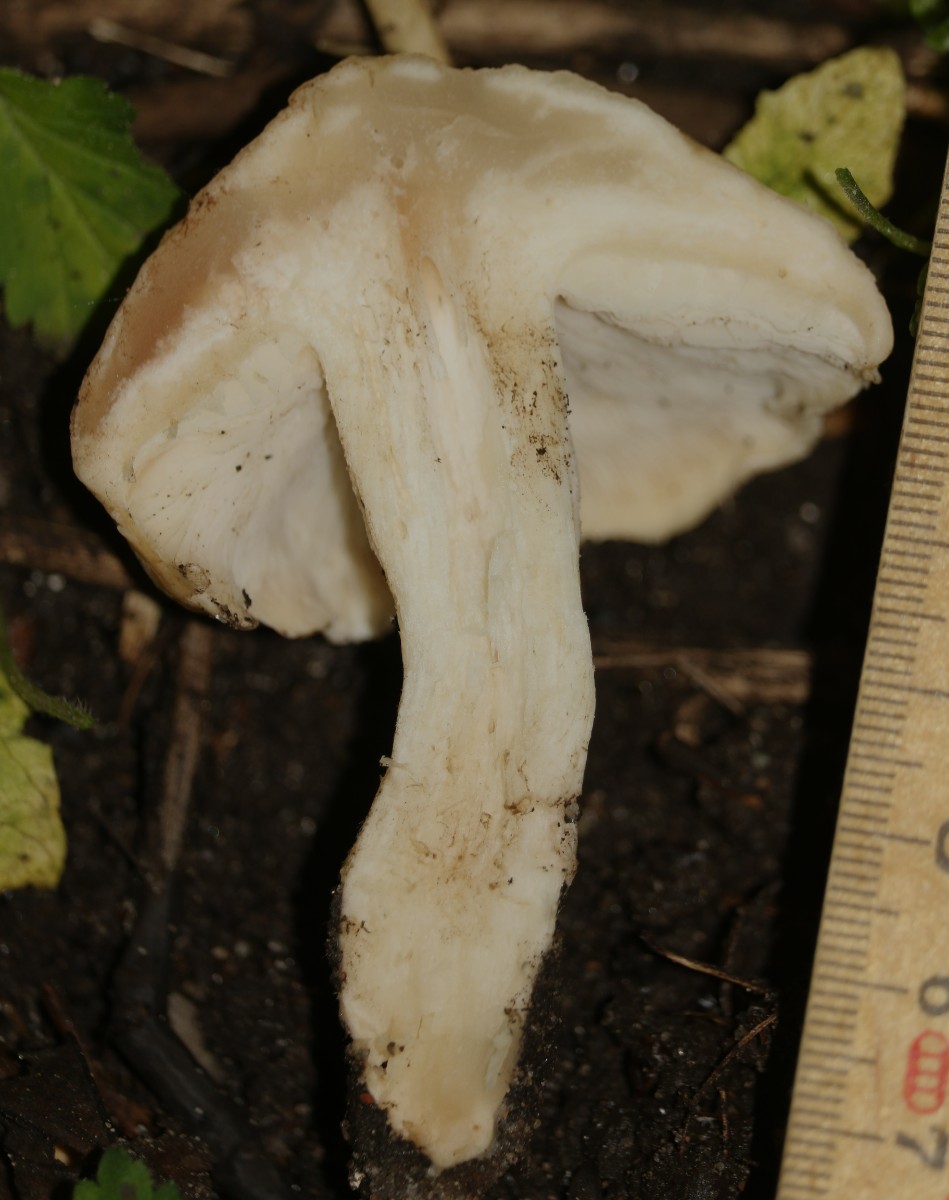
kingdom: Fungi
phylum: Basidiomycota
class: Agaricomycetes
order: Agaricales
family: Lyophyllaceae
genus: Calocybe
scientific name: Calocybe gambosa
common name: vårmusseron
